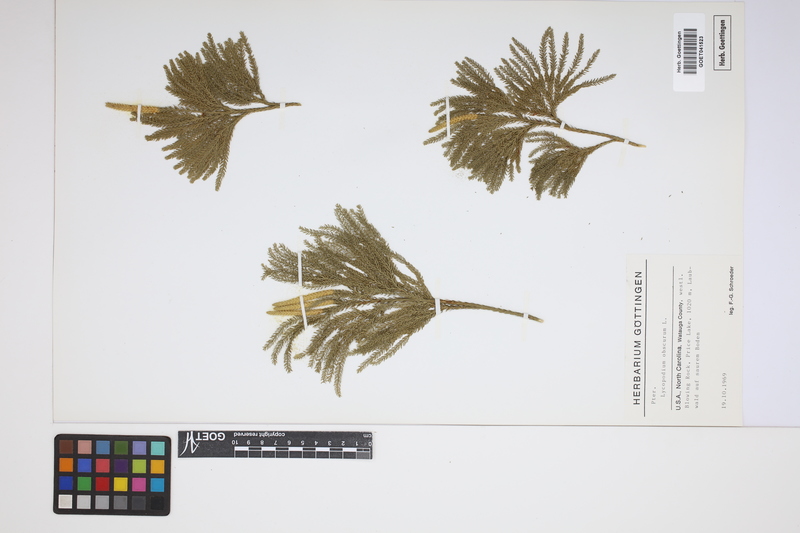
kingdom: Plantae
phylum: Tracheophyta
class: Lycopodiopsida
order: Lycopodiales
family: Lycopodiaceae
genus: Dendrolycopodium
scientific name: Dendrolycopodium obscurum
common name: Common ground-pine
